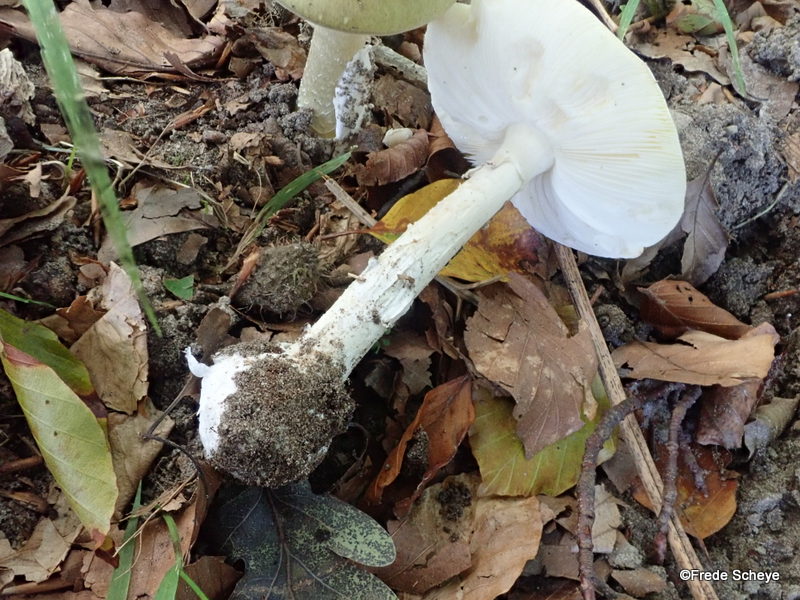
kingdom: Fungi
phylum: Basidiomycota
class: Agaricomycetes
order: Agaricales
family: Amanitaceae
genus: Amanita
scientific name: Amanita phalloides
